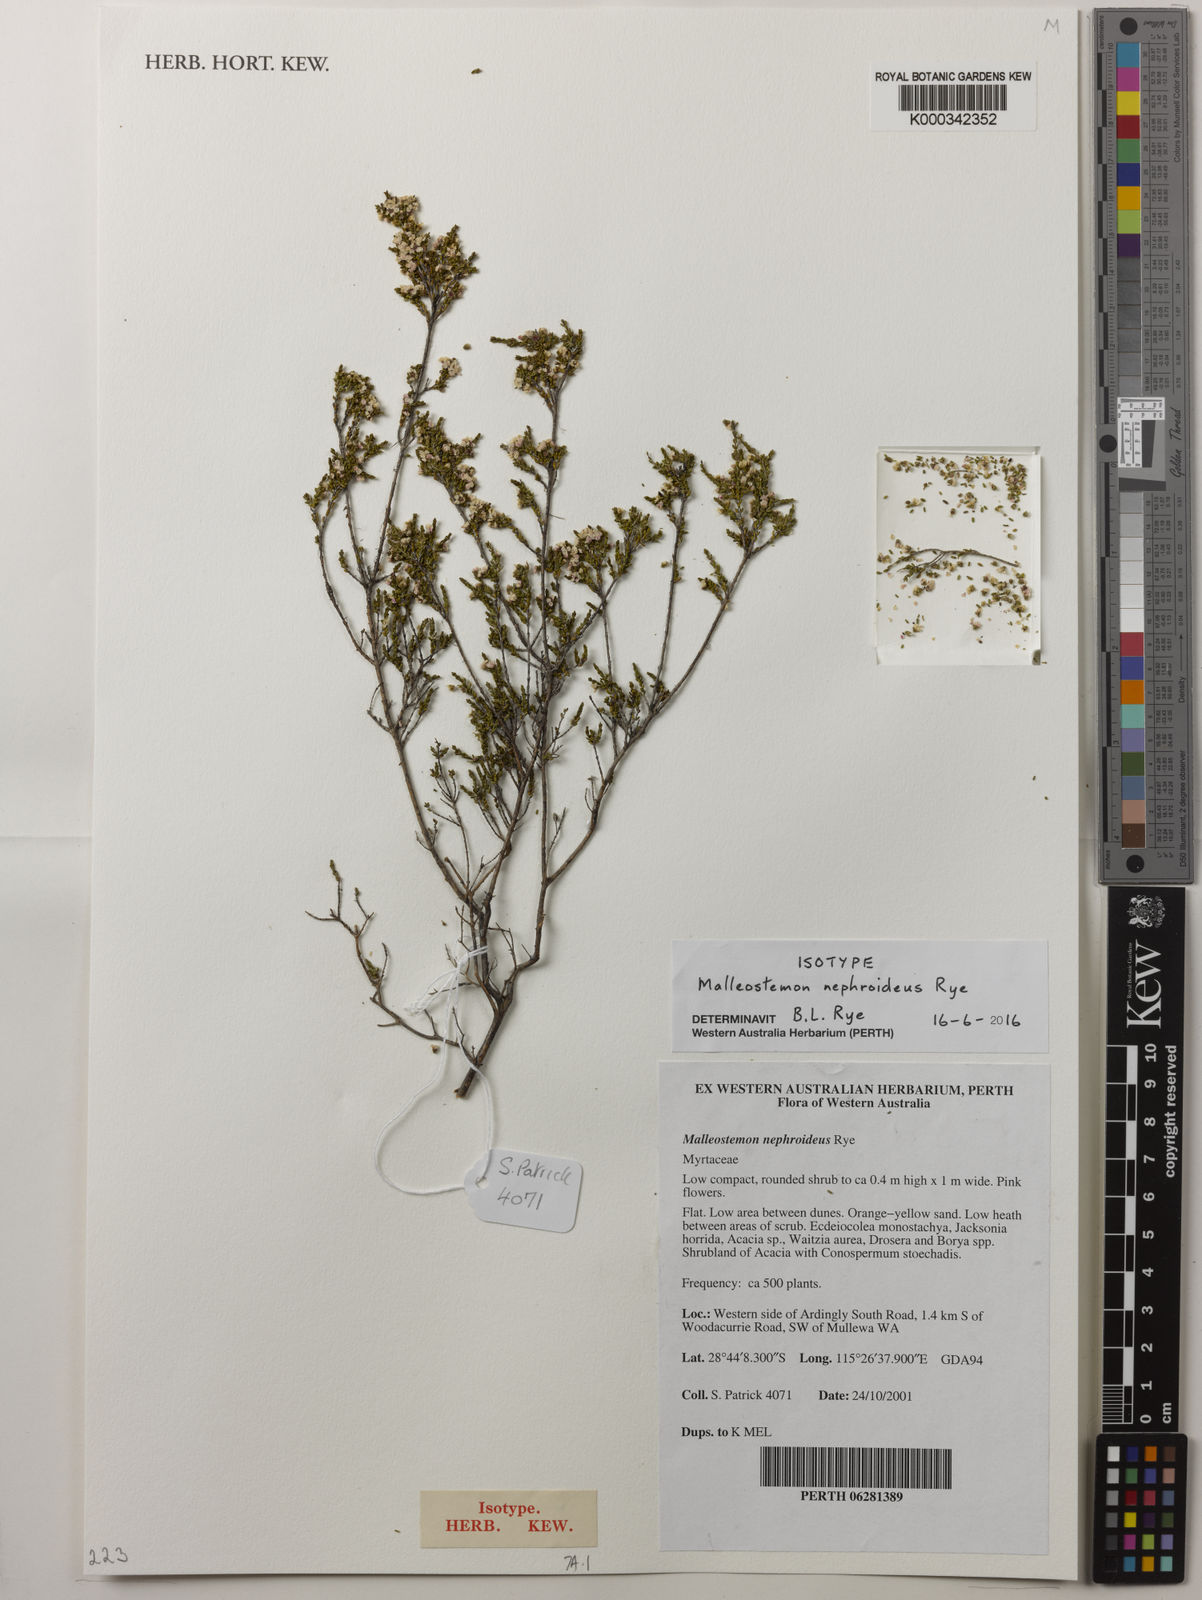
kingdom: Plantae
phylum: Tracheophyta
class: Magnoliopsida
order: Myrtales
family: Myrtaceae
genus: Malleostemon
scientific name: Malleostemon nephroideus
